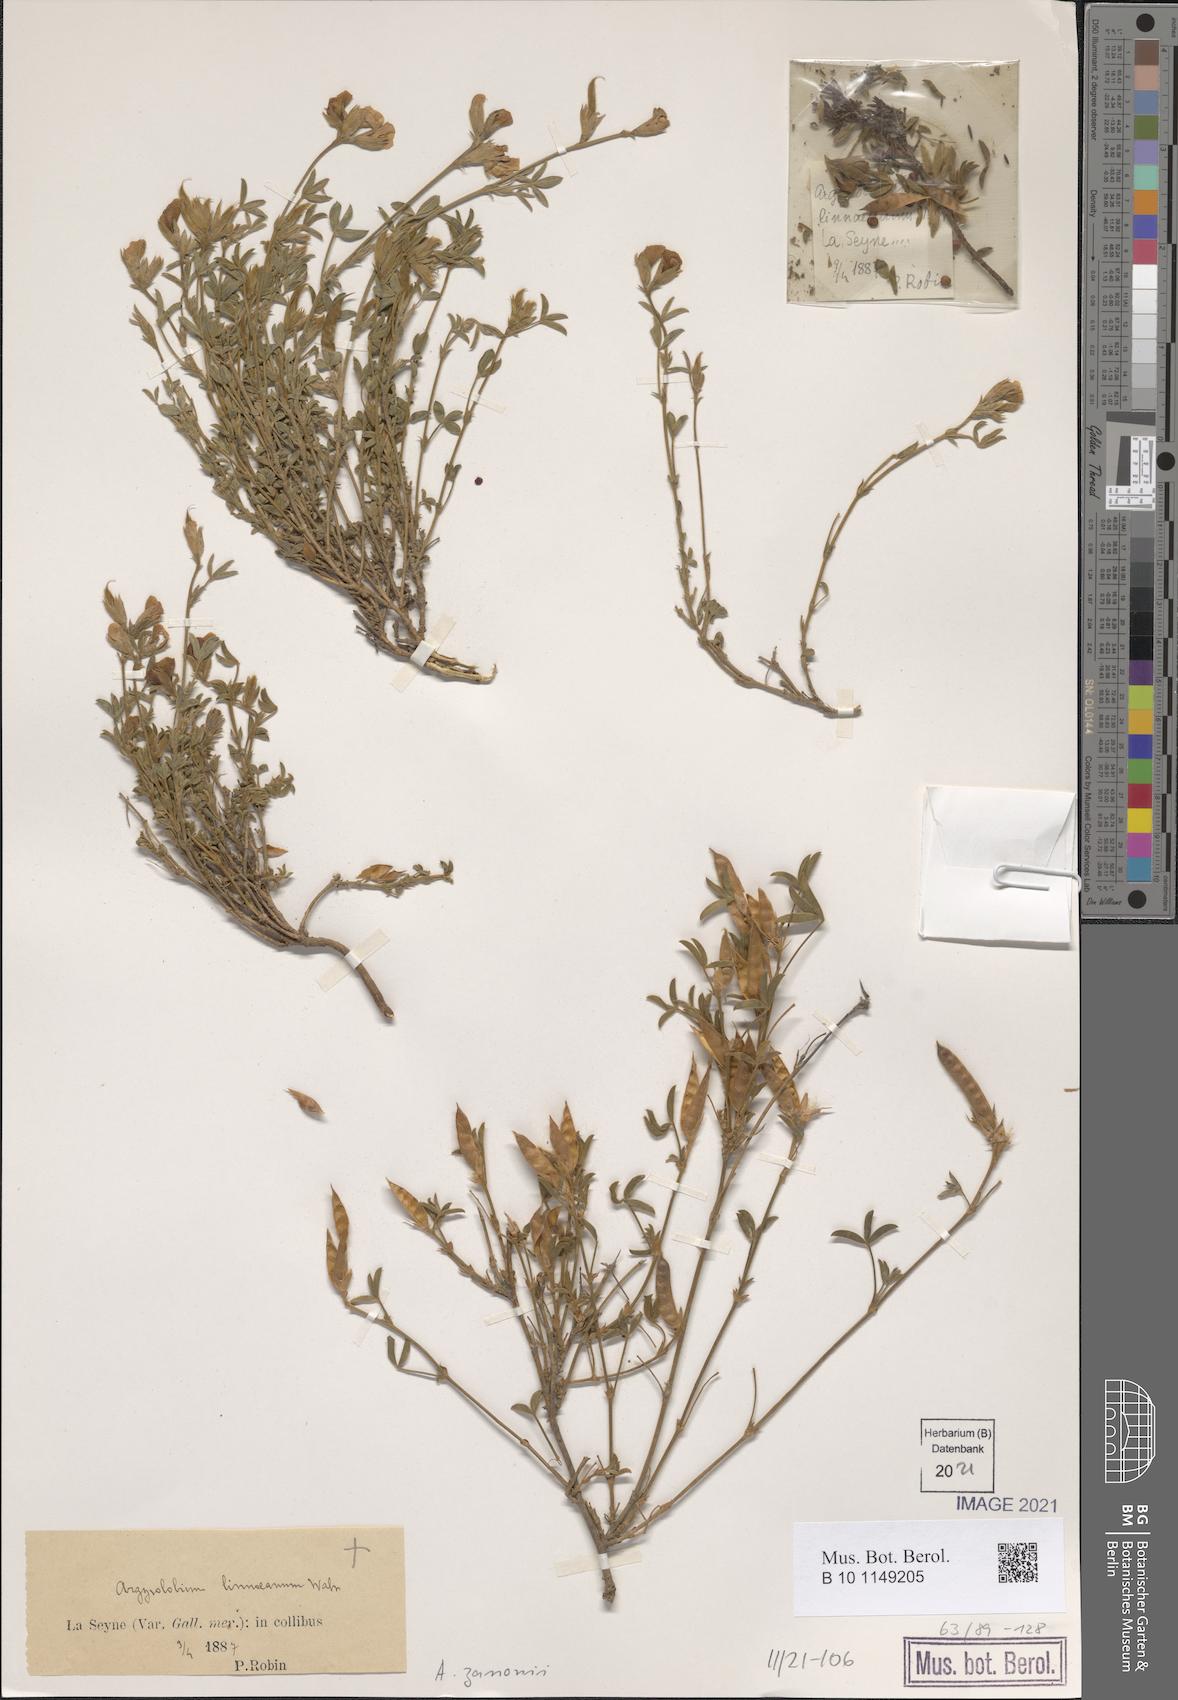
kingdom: Plantae
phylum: Tracheophyta
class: Magnoliopsida
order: Fabales
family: Fabaceae
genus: Argyrolobium
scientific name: Argyrolobium zanonii
